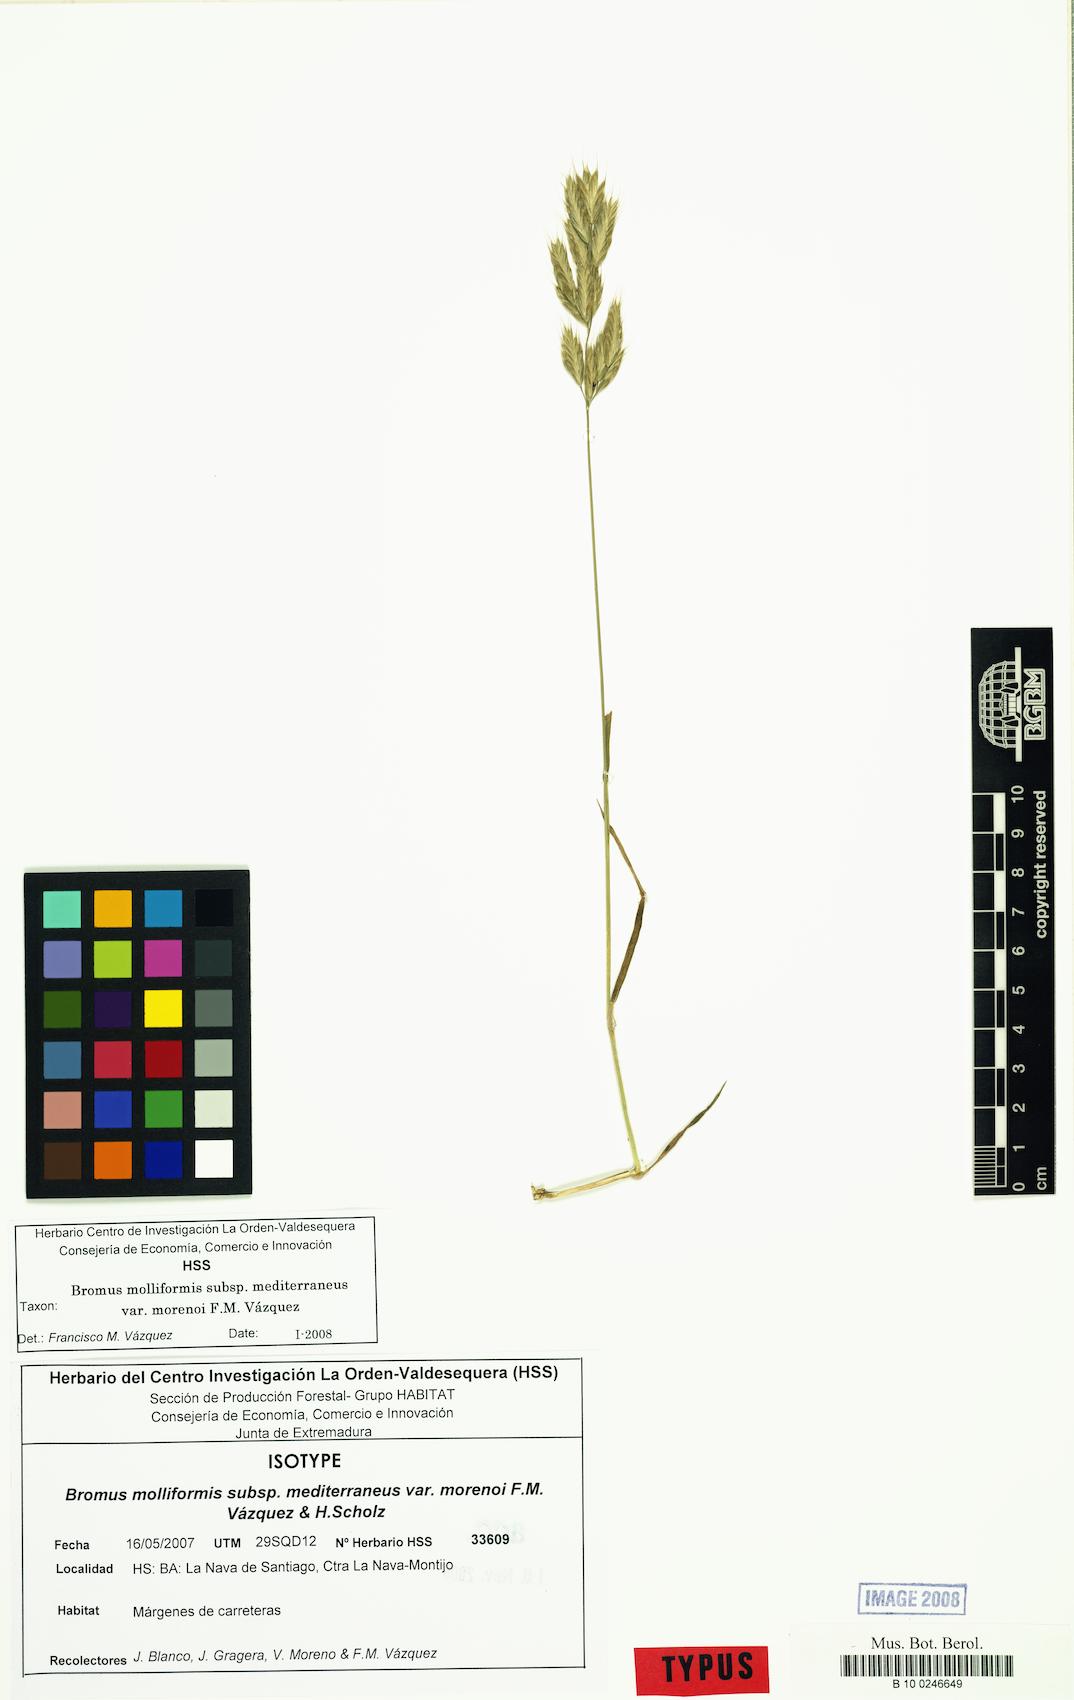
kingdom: Plantae
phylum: Tracheophyta
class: Liliopsida
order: Poales
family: Poaceae
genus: Bromus
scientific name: Bromus hordeaceus
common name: Soft brome
